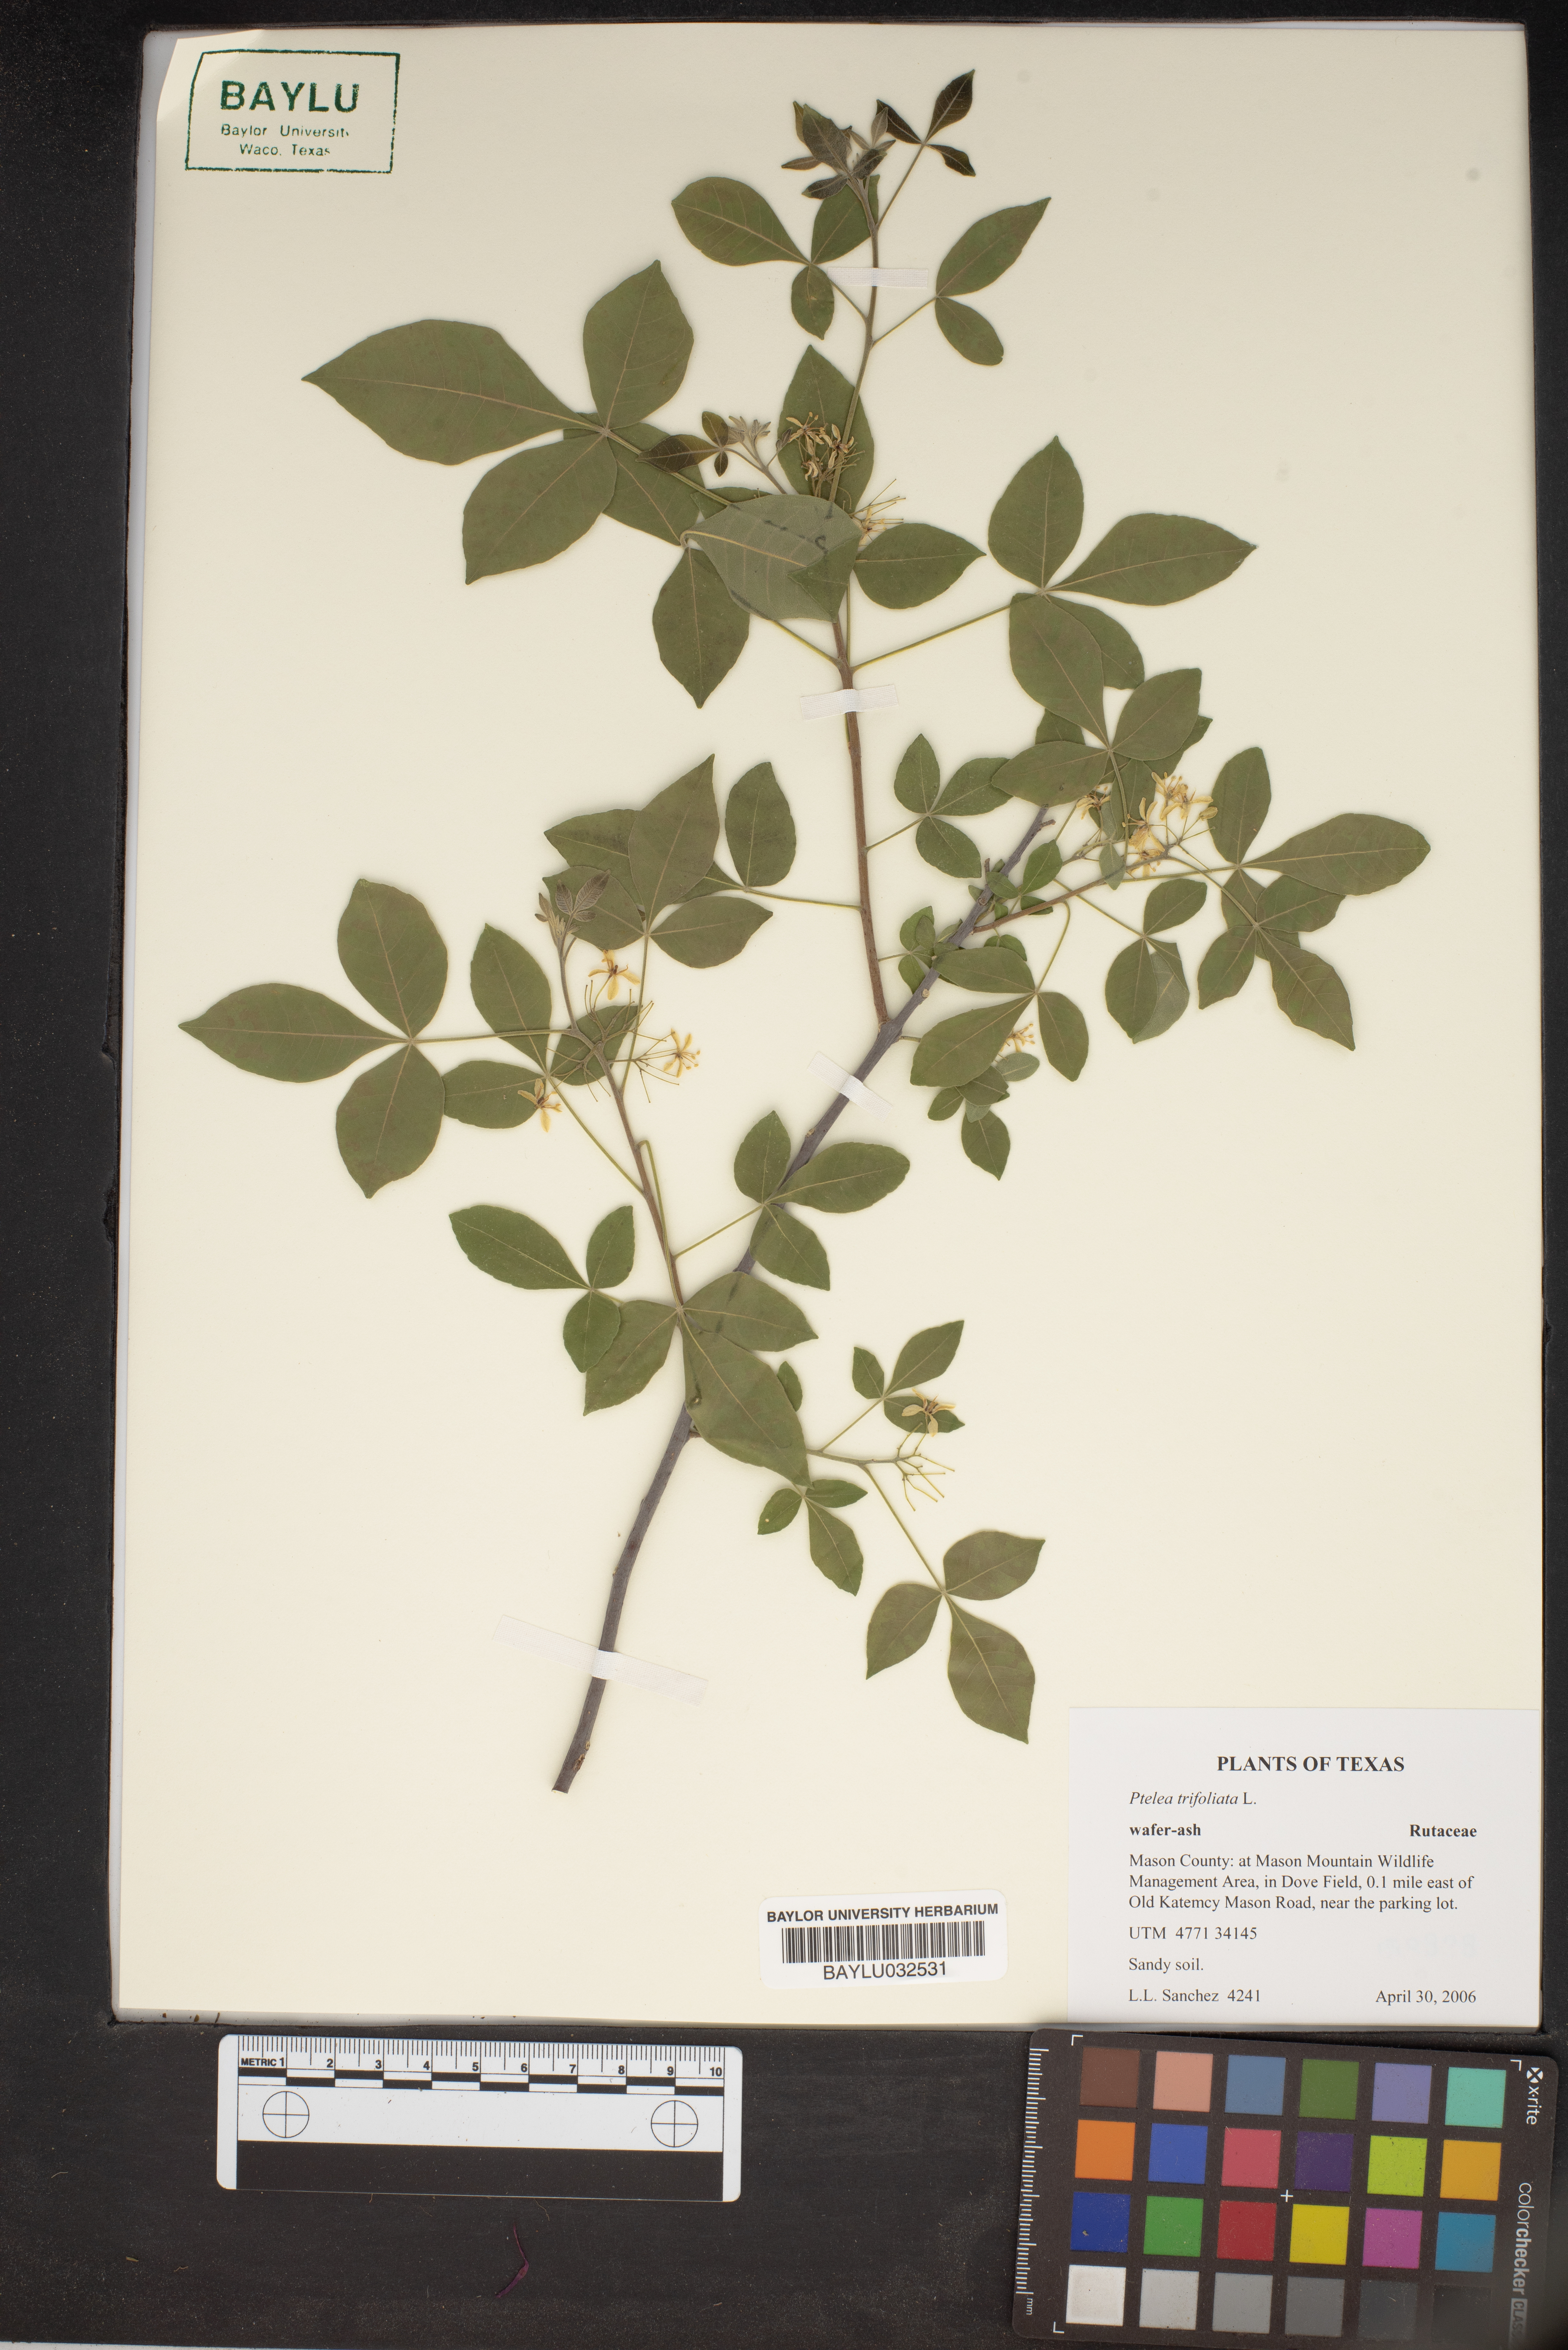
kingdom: Plantae
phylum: Tracheophyta
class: Magnoliopsida
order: Sapindales
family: Rutaceae
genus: Ptelea
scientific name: Ptelea trifoliata
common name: Common hop-tree
